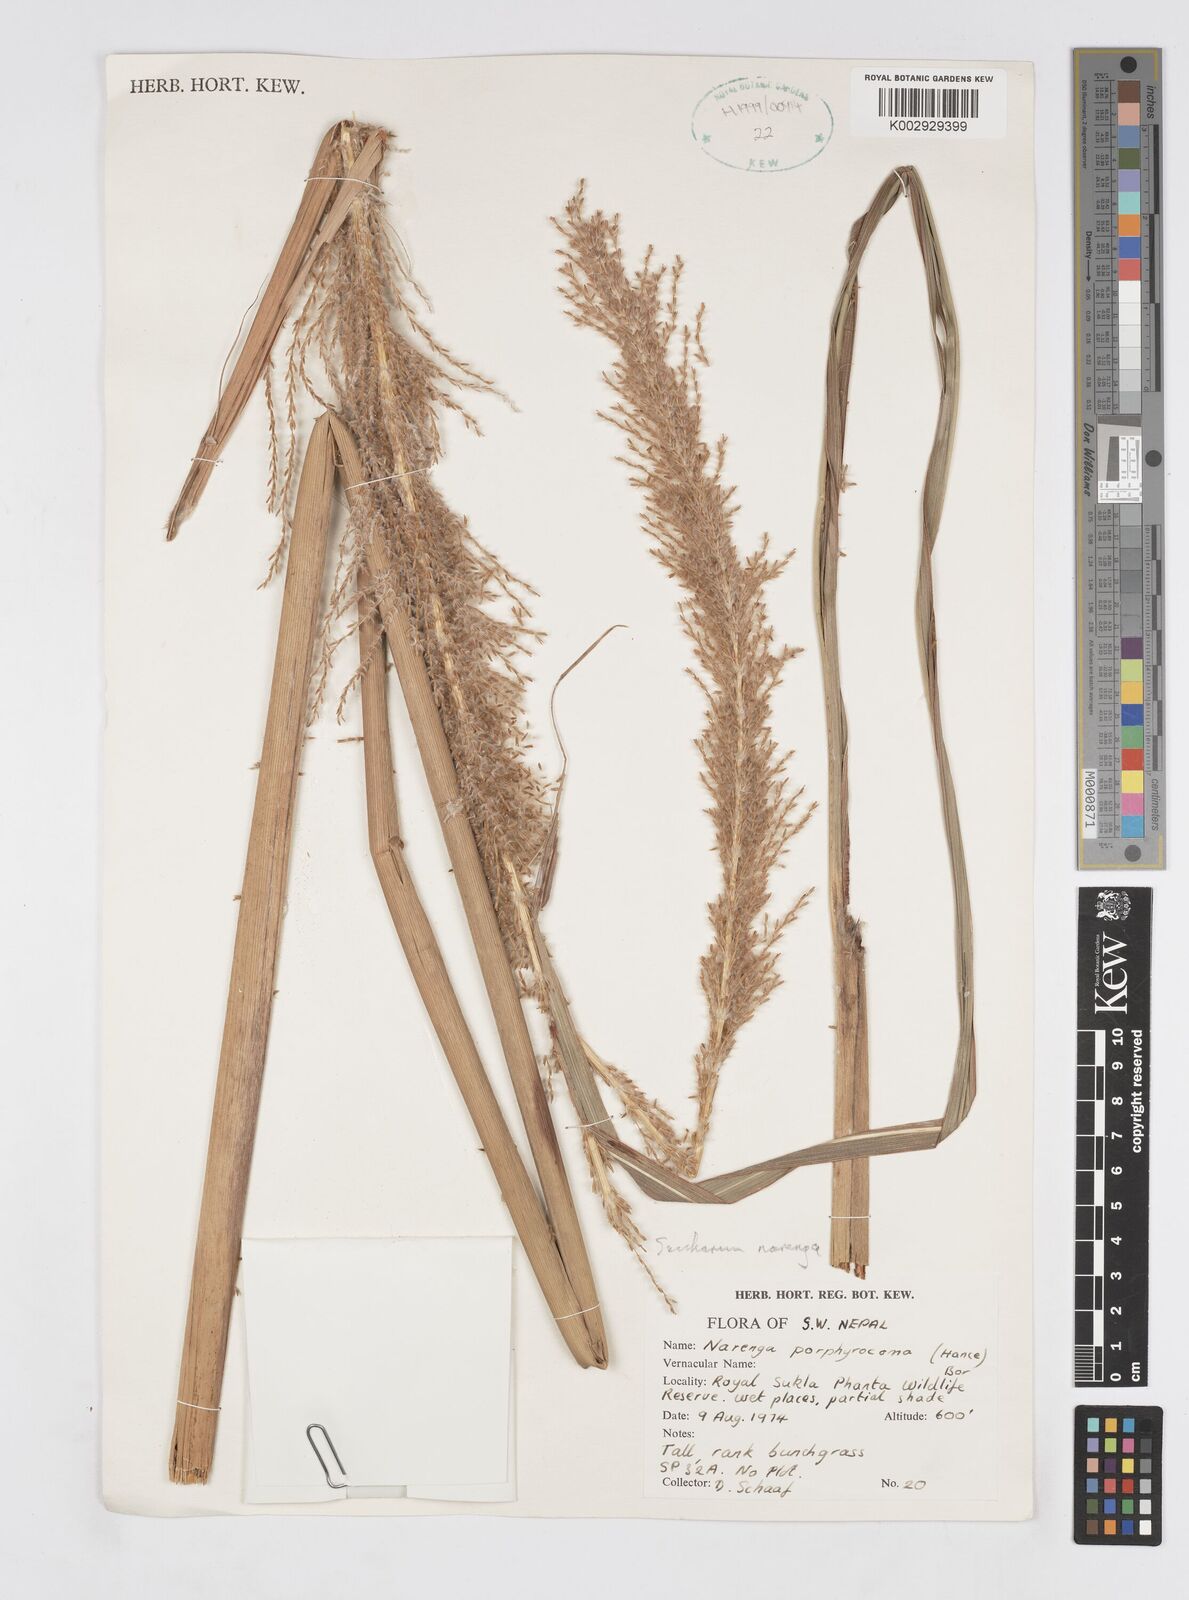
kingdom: Plantae
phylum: Tracheophyta
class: Liliopsida
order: Poales
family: Poaceae
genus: Narenga
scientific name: Narenga porphyrocoma
